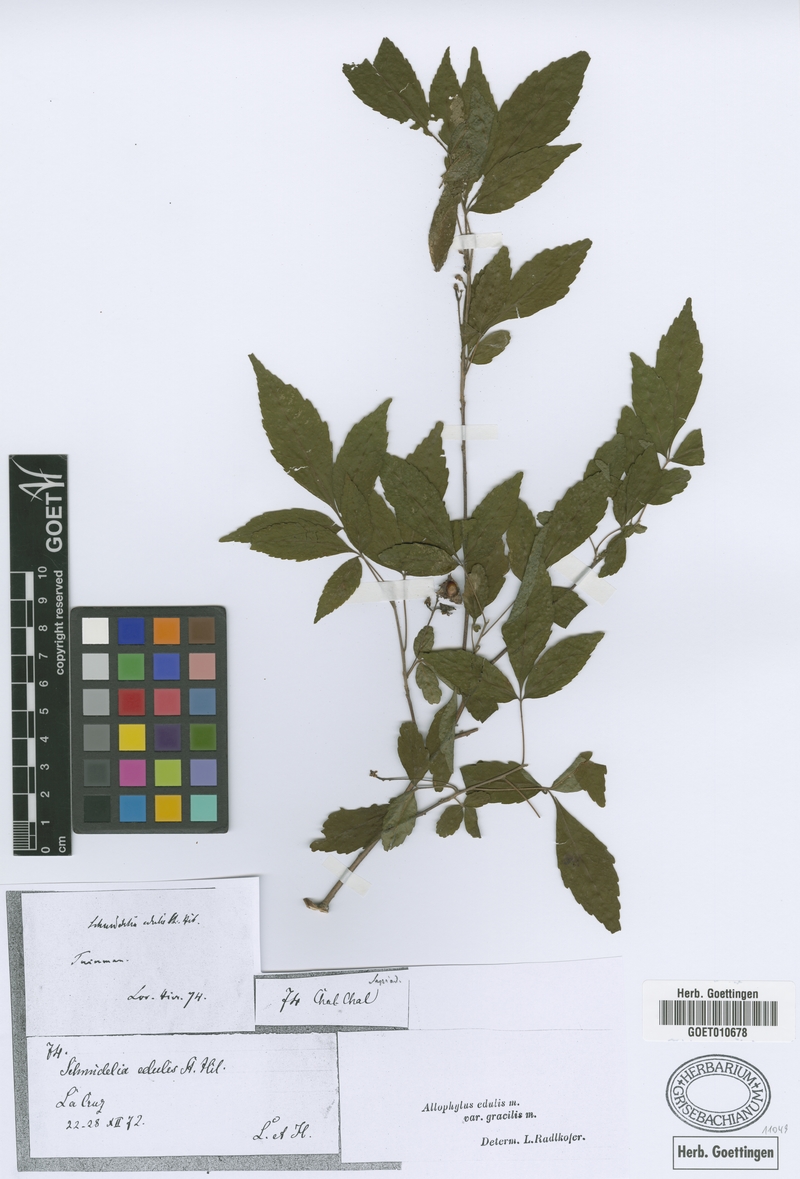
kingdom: Plantae
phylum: Tracheophyta
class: Magnoliopsida
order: Sapindales
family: Sapindaceae
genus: Allophylus
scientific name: Allophylus edulis
